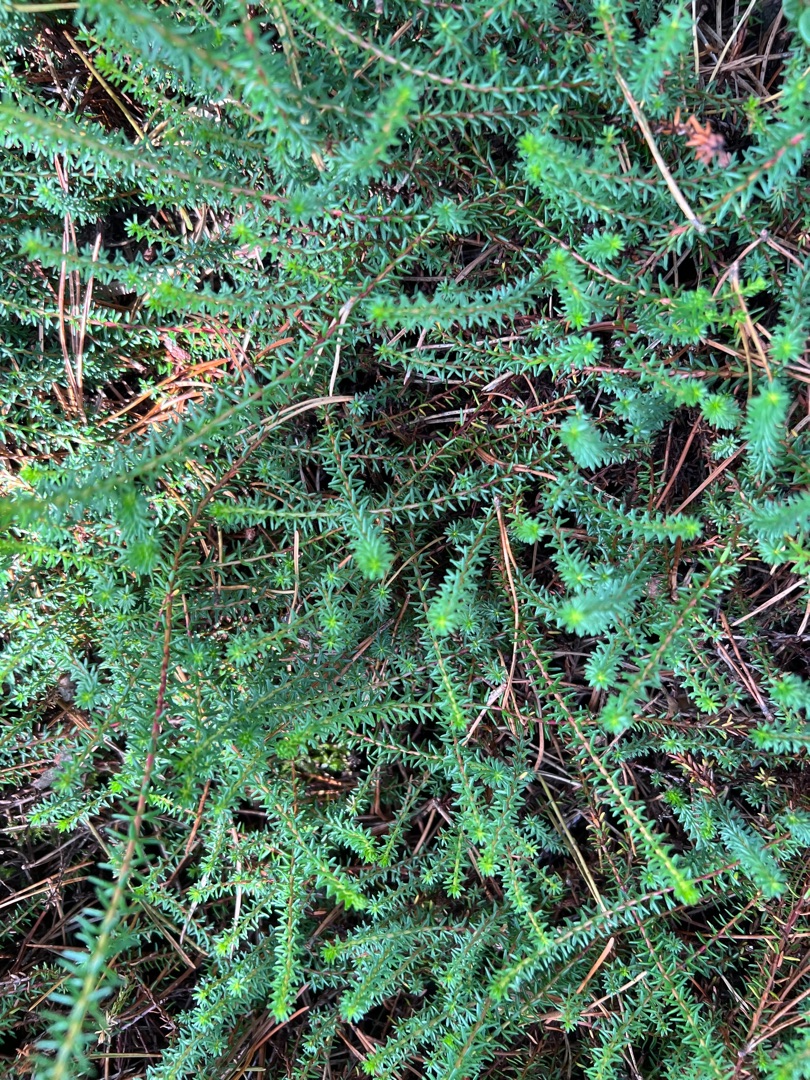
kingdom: Plantae
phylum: Tracheophyta
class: Magnoliopsida
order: Ericales
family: Ericaceae
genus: Empetrum
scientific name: Empetrum nigrum
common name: Revling
